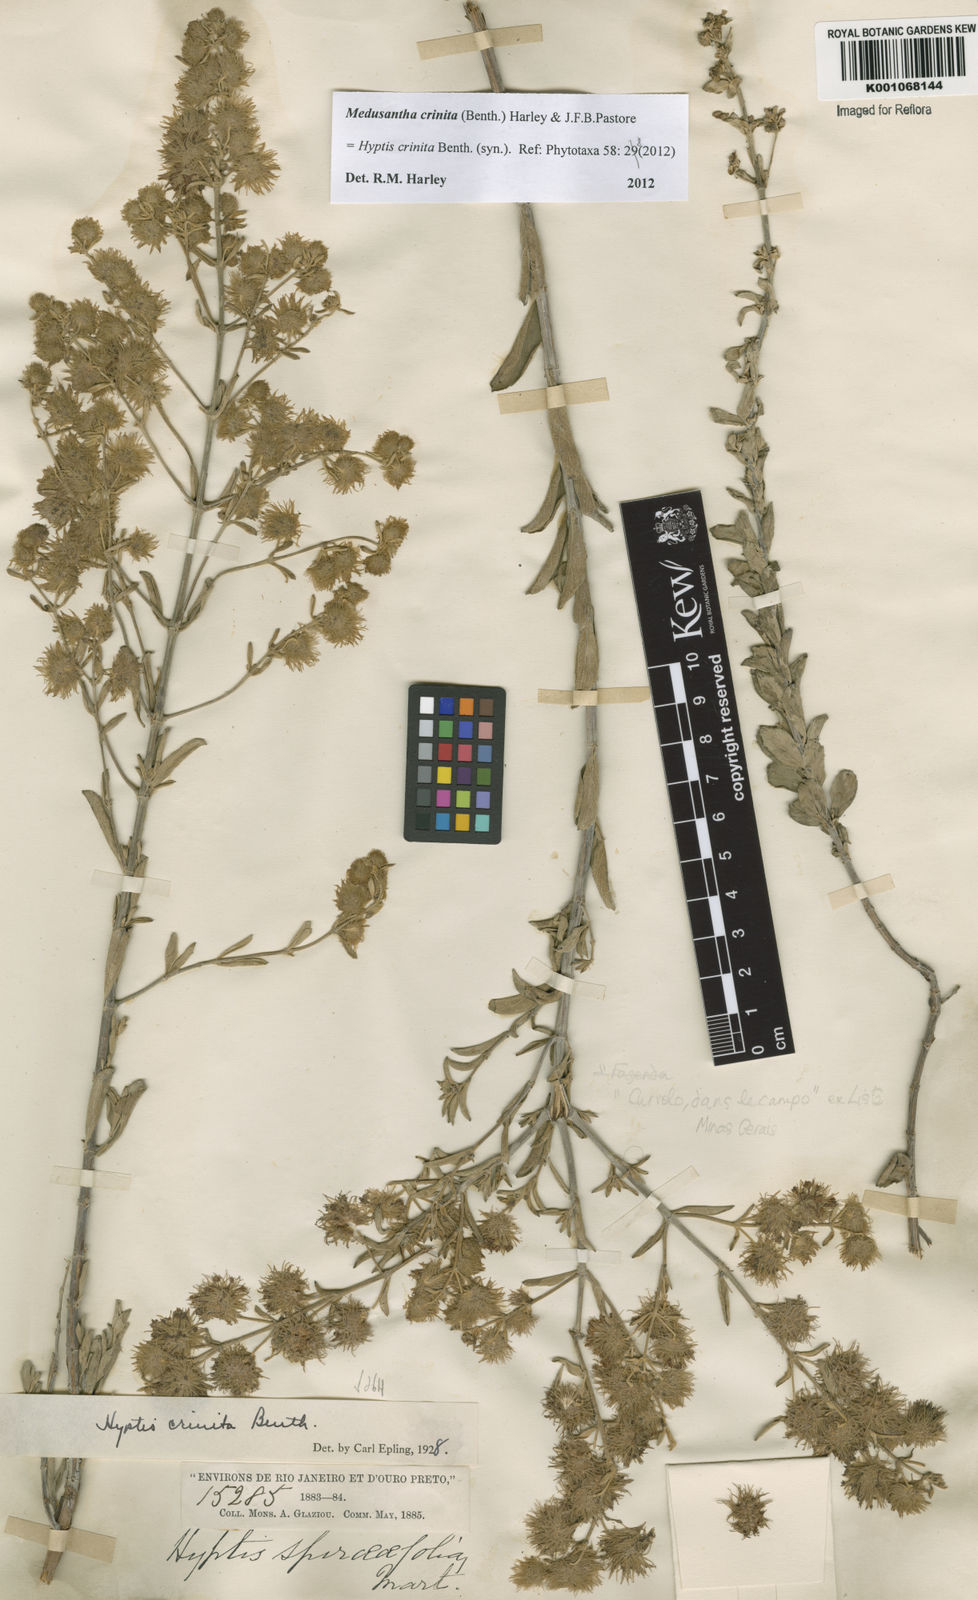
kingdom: Plantae
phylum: Tracheophyta
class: Magnoliopsida
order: Lamiales
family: Lamiaceae
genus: Medusantha
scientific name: Medusantha crinita
